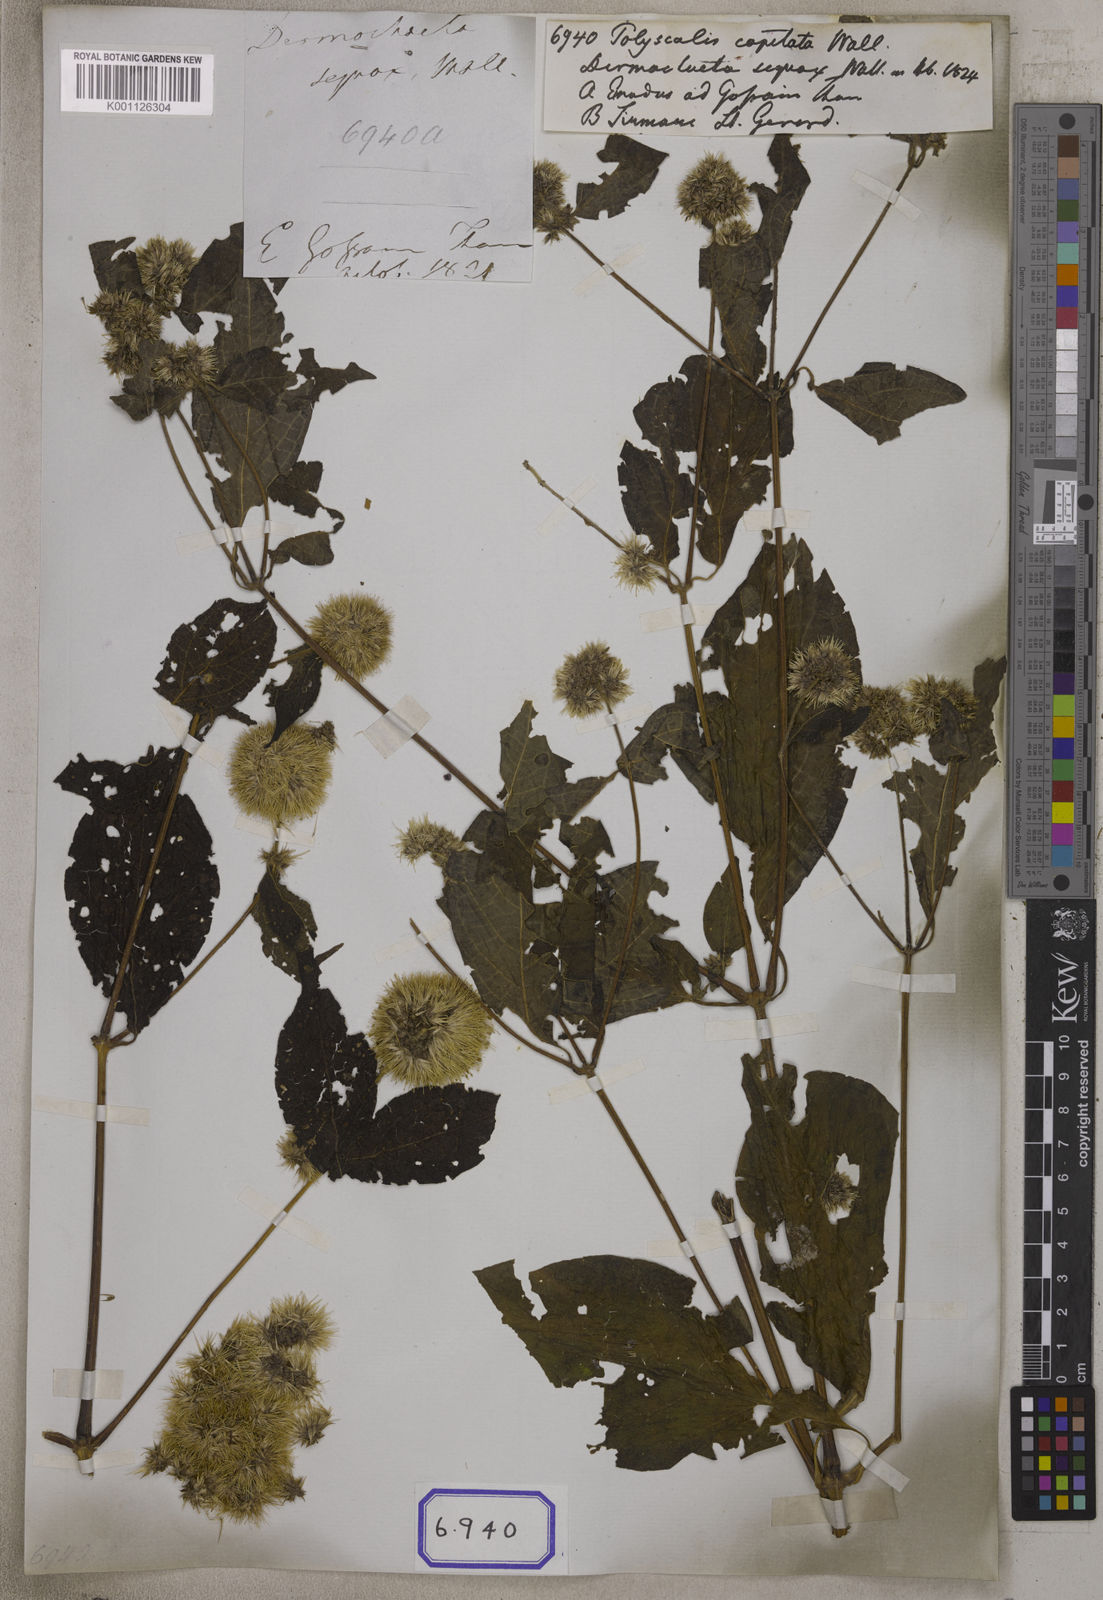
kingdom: Plantae
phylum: Tracheophyta
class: Magnoliopsida
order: Caryophyllales
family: Amaranthaceae
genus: Cyathula
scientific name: Cyathula capitata
